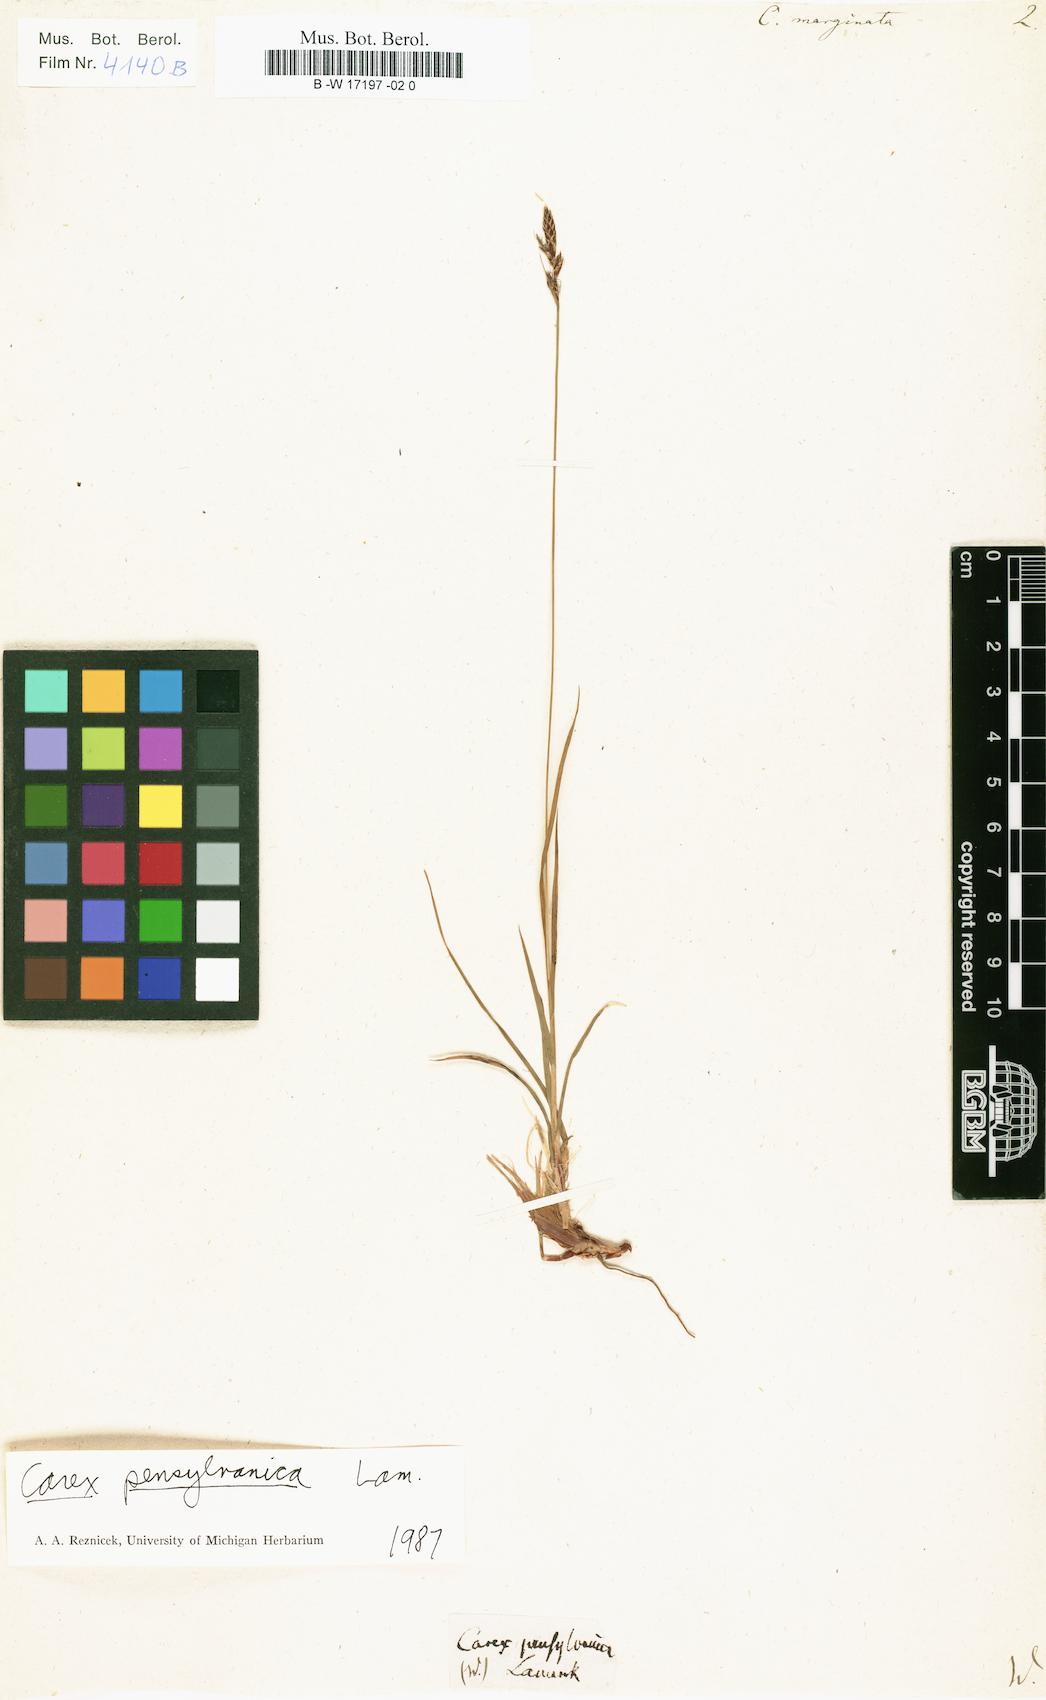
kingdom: Plantae
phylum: Tracheophyta
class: Liliopsida
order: Poales
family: Cyperaceae
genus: Carex
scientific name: Carex pensylvanica
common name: Common oak sedge
